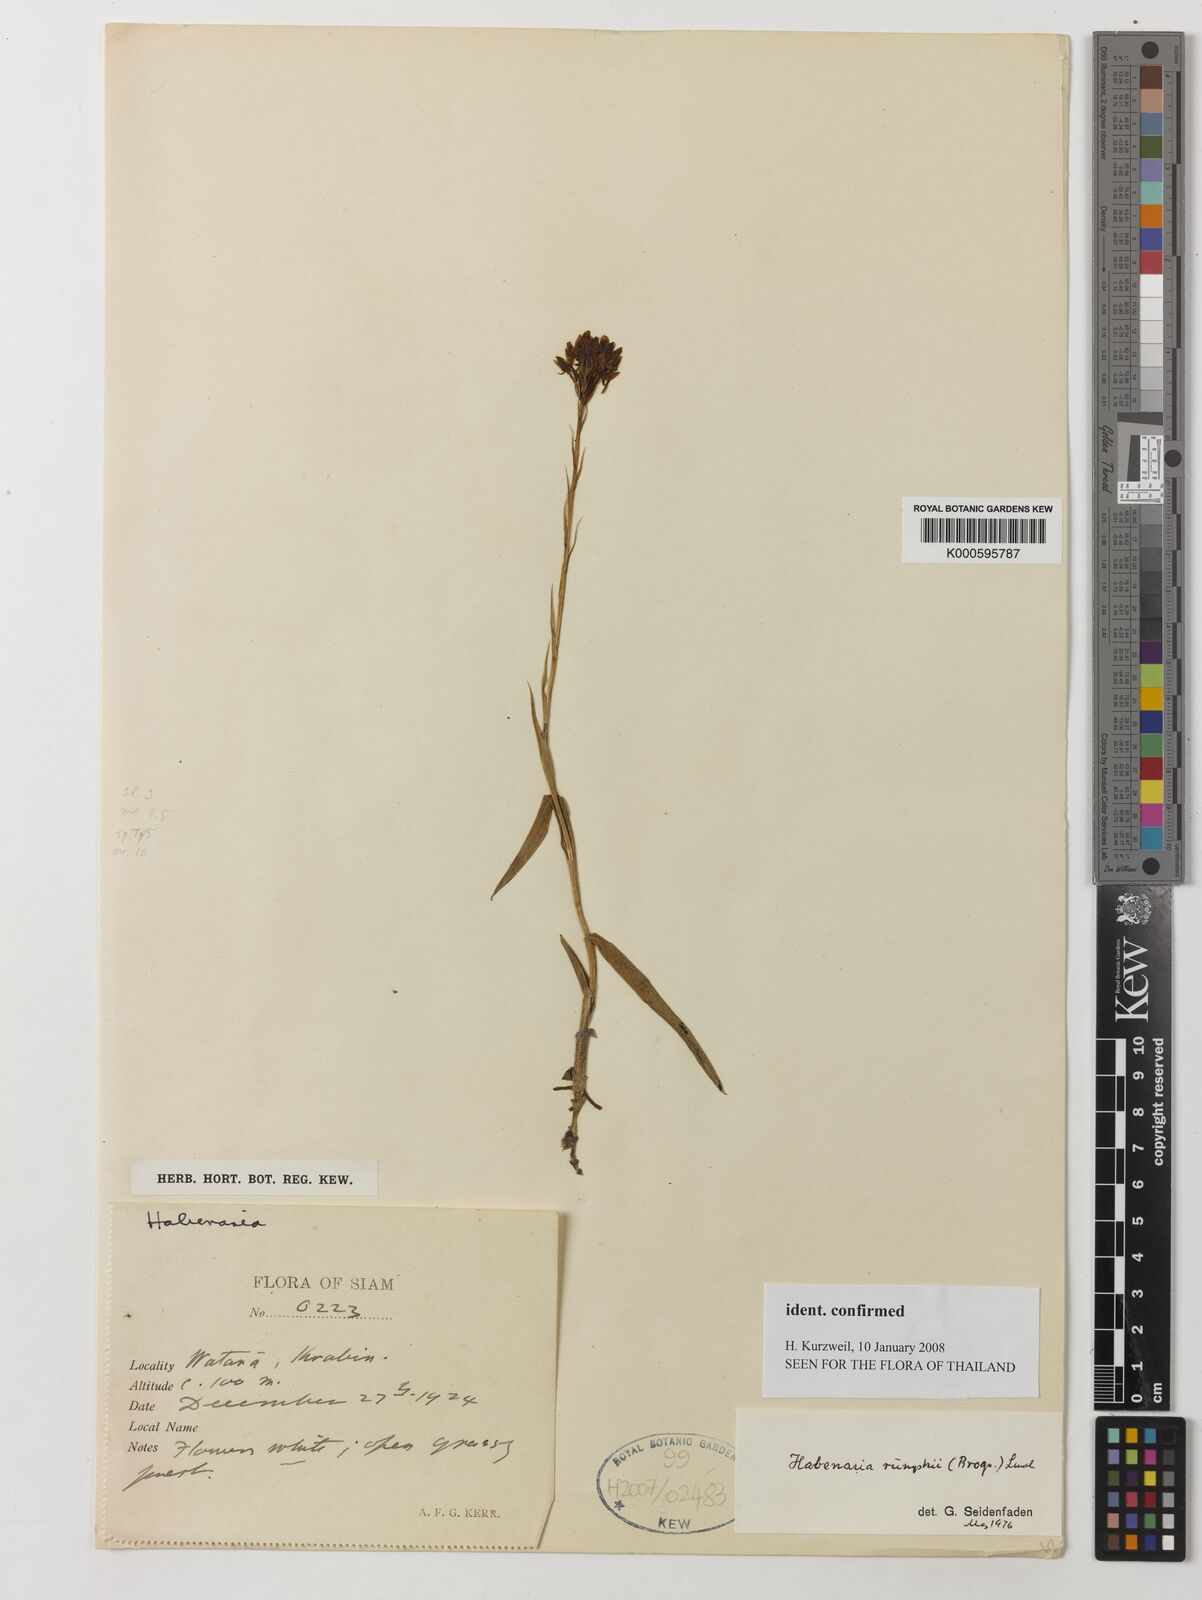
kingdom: Plantae
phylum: Tracheophyta
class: Liliopsida
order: Asparagales
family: Orchidaceae
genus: Habenaria
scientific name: Habenaria rumphii
